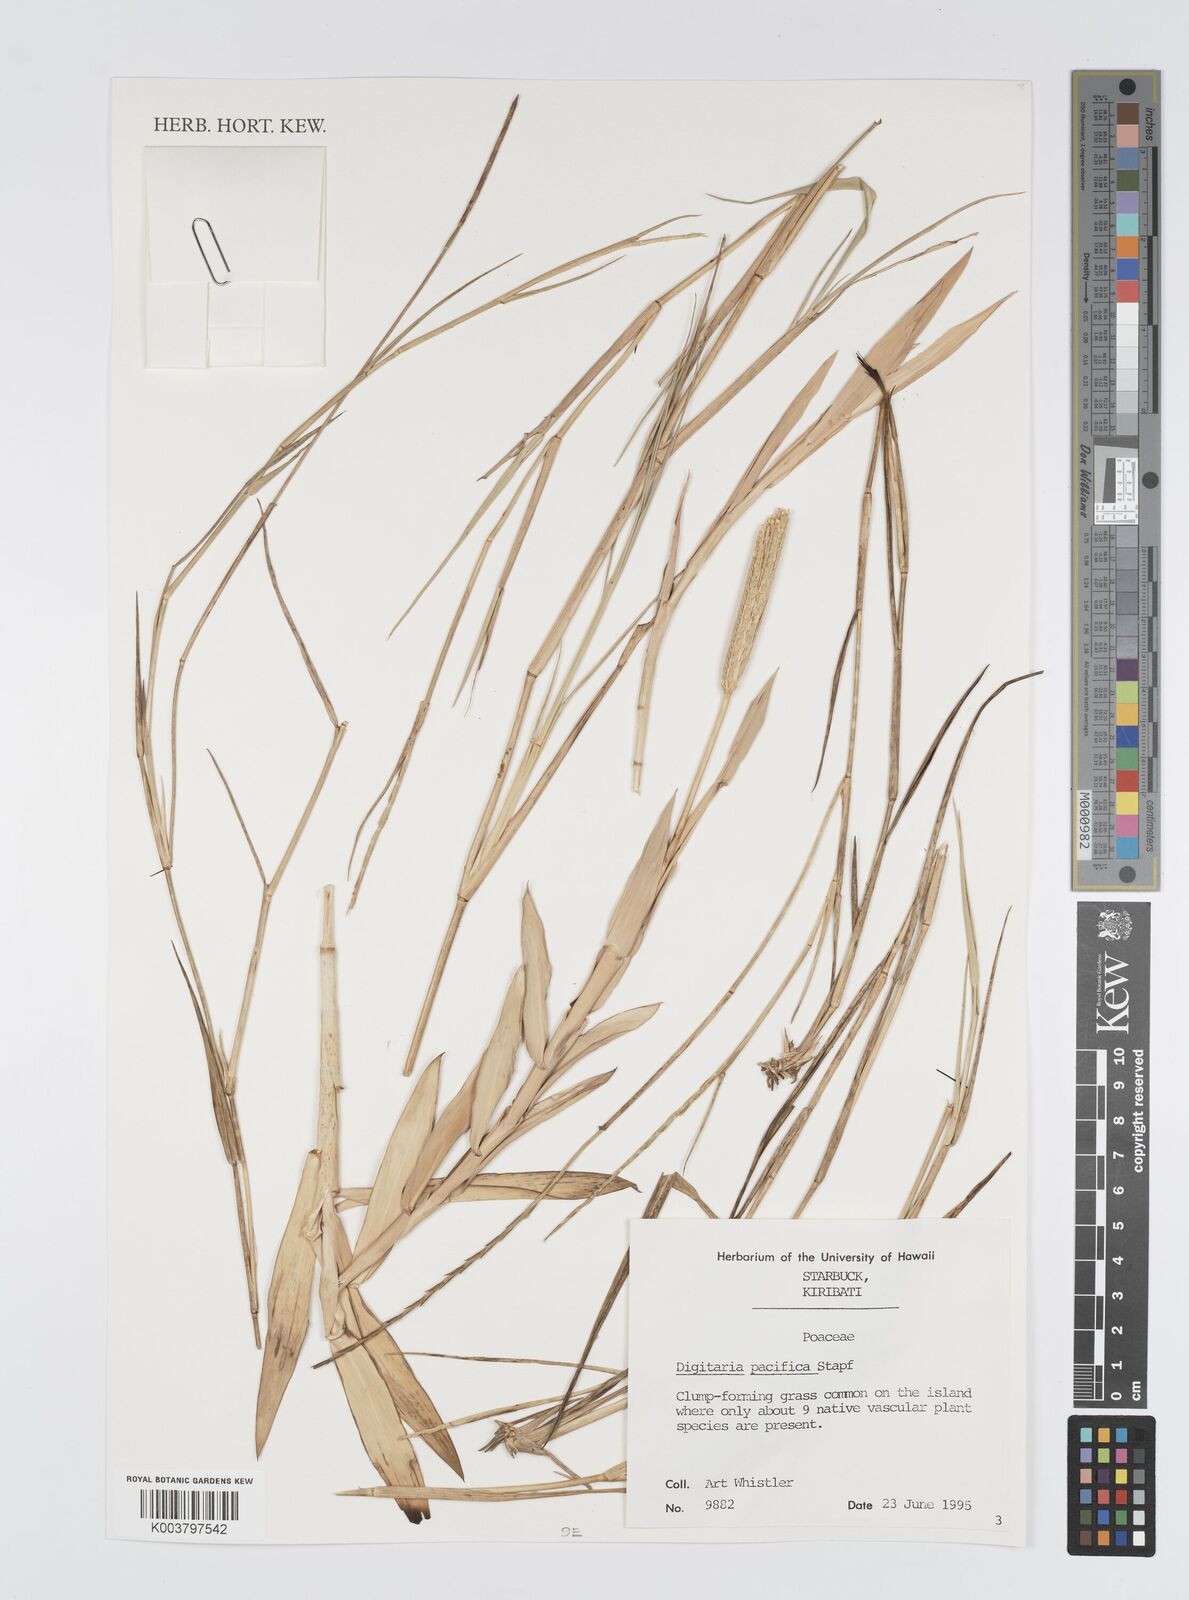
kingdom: Plantae
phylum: Tracheophyta
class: Liliopsida
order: Poales
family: Poaceae
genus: Digitaria
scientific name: Digitaria stenotaphrodes
